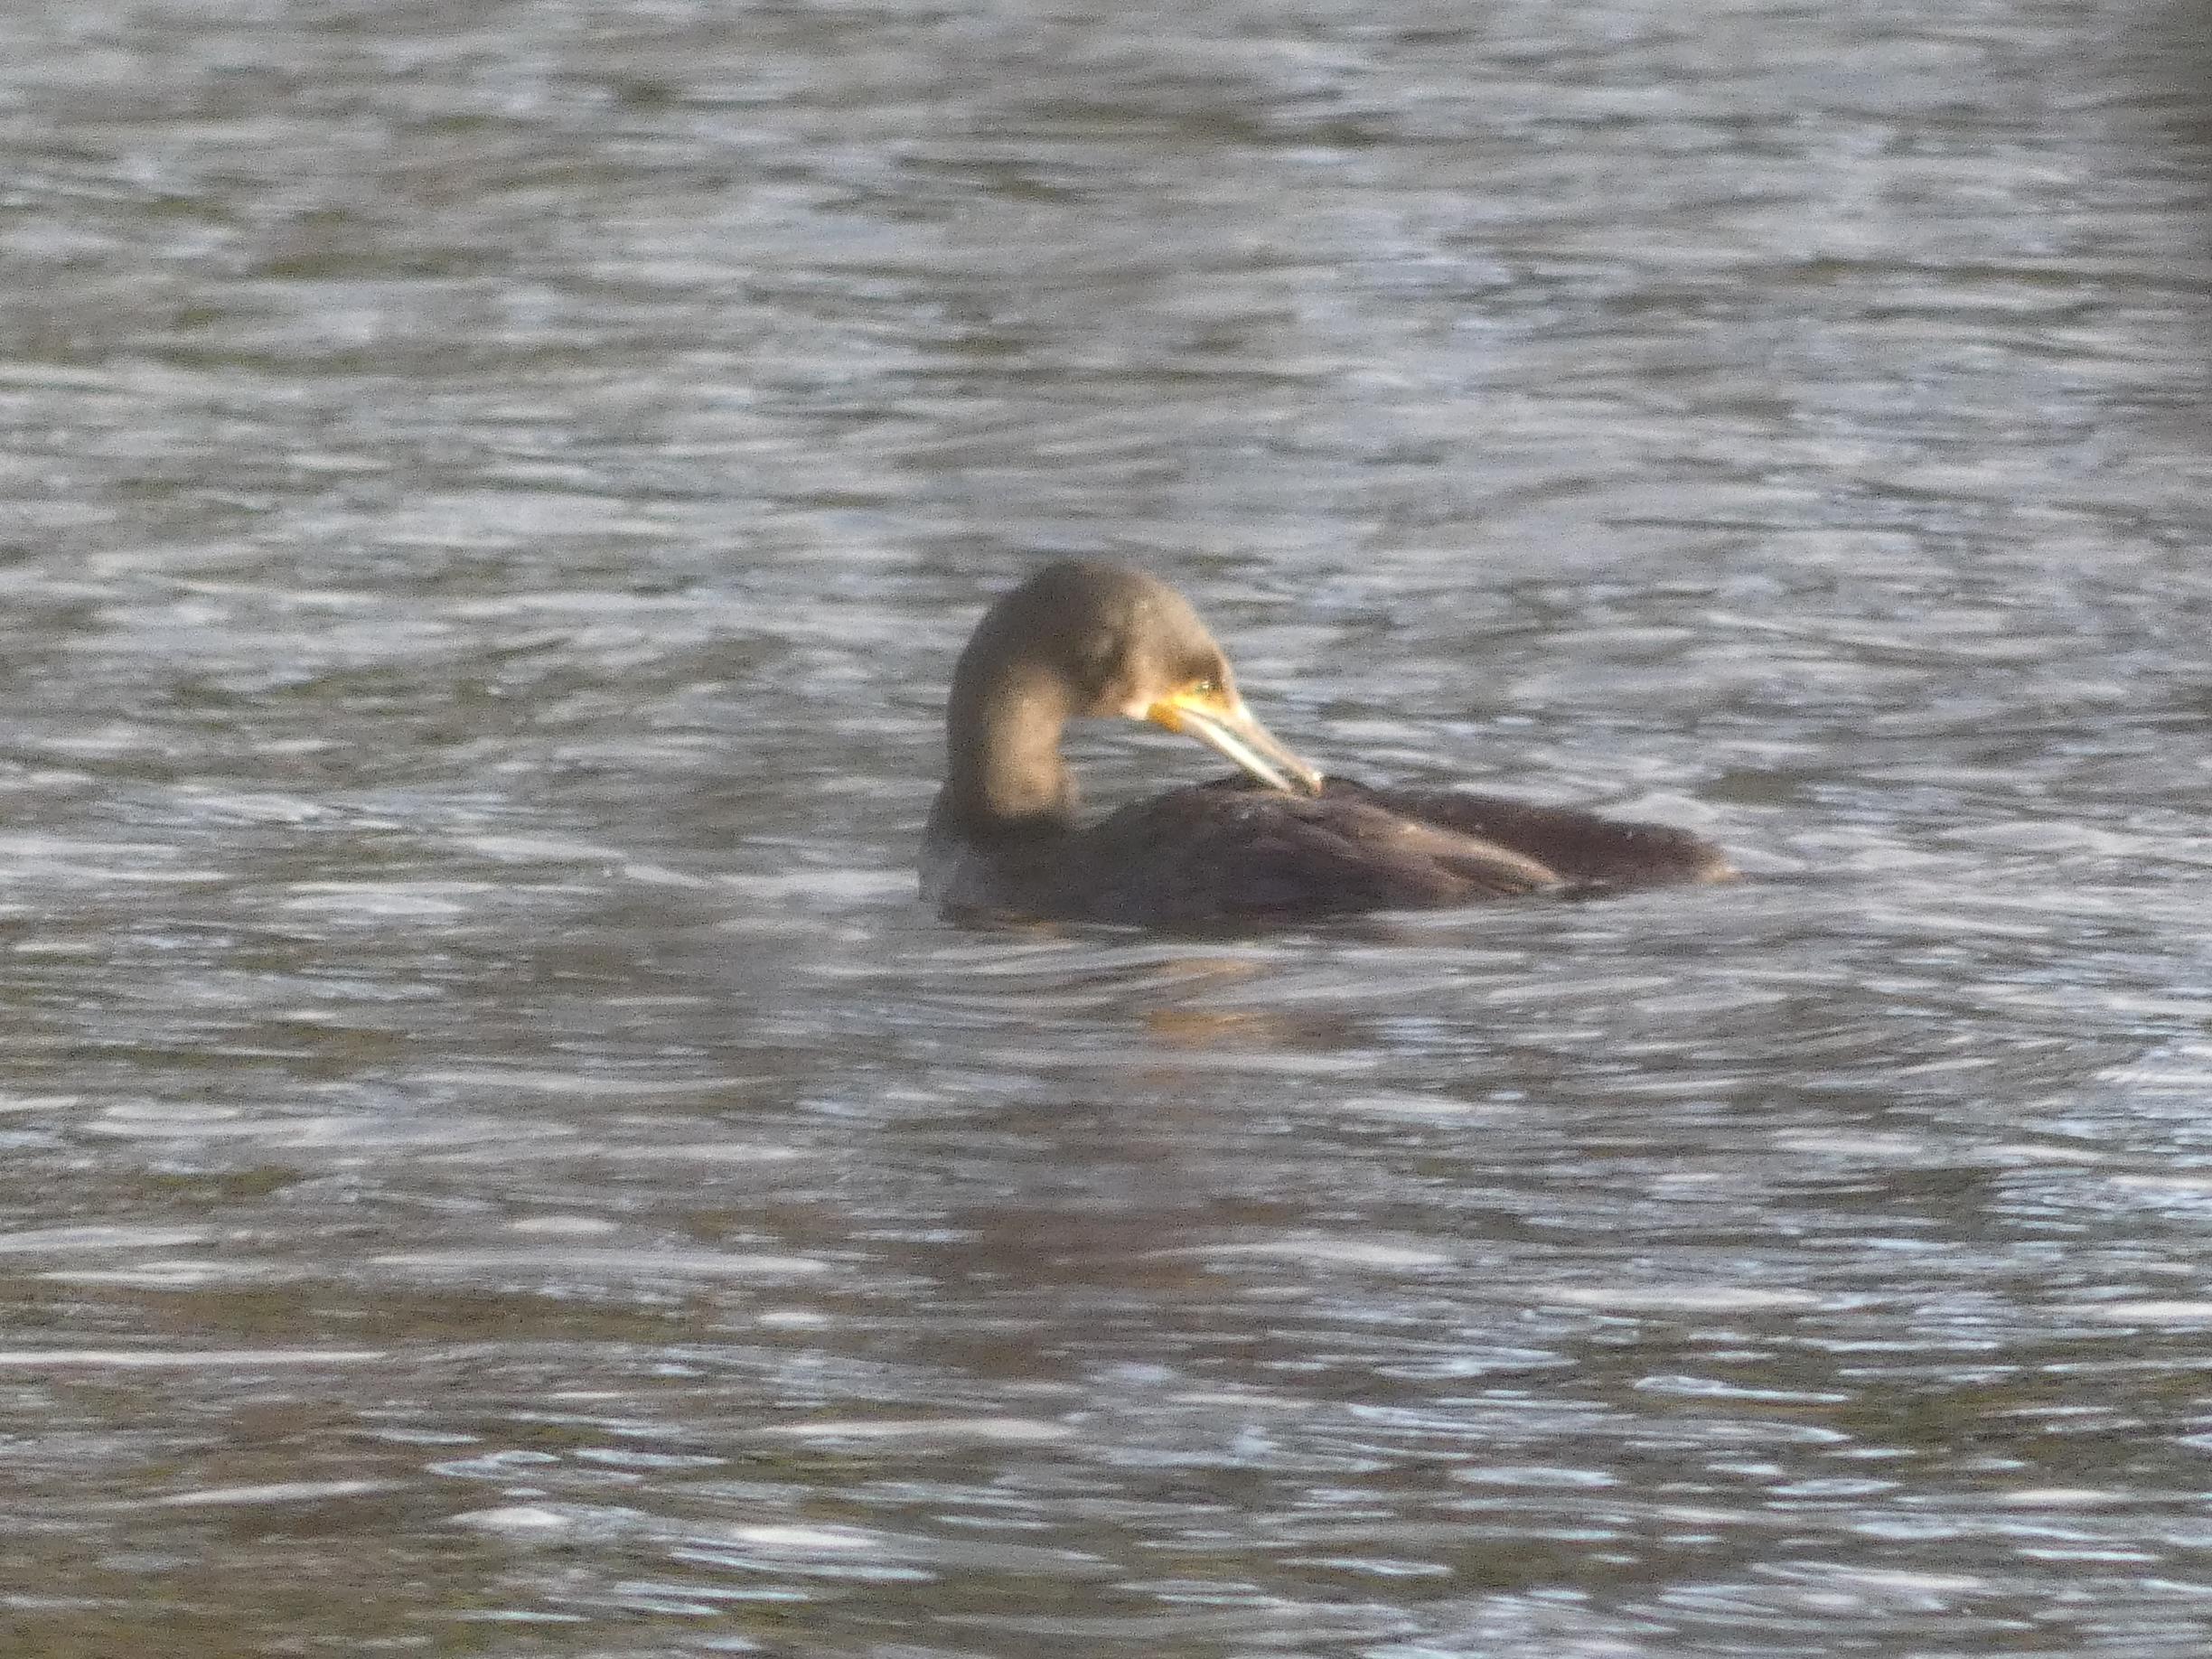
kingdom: Animalia
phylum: Chordata
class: Aves
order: Suliformes
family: Phalacrocoracidae
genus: Phalacrocorax
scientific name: Phalacrocorax carbo
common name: Skarv
